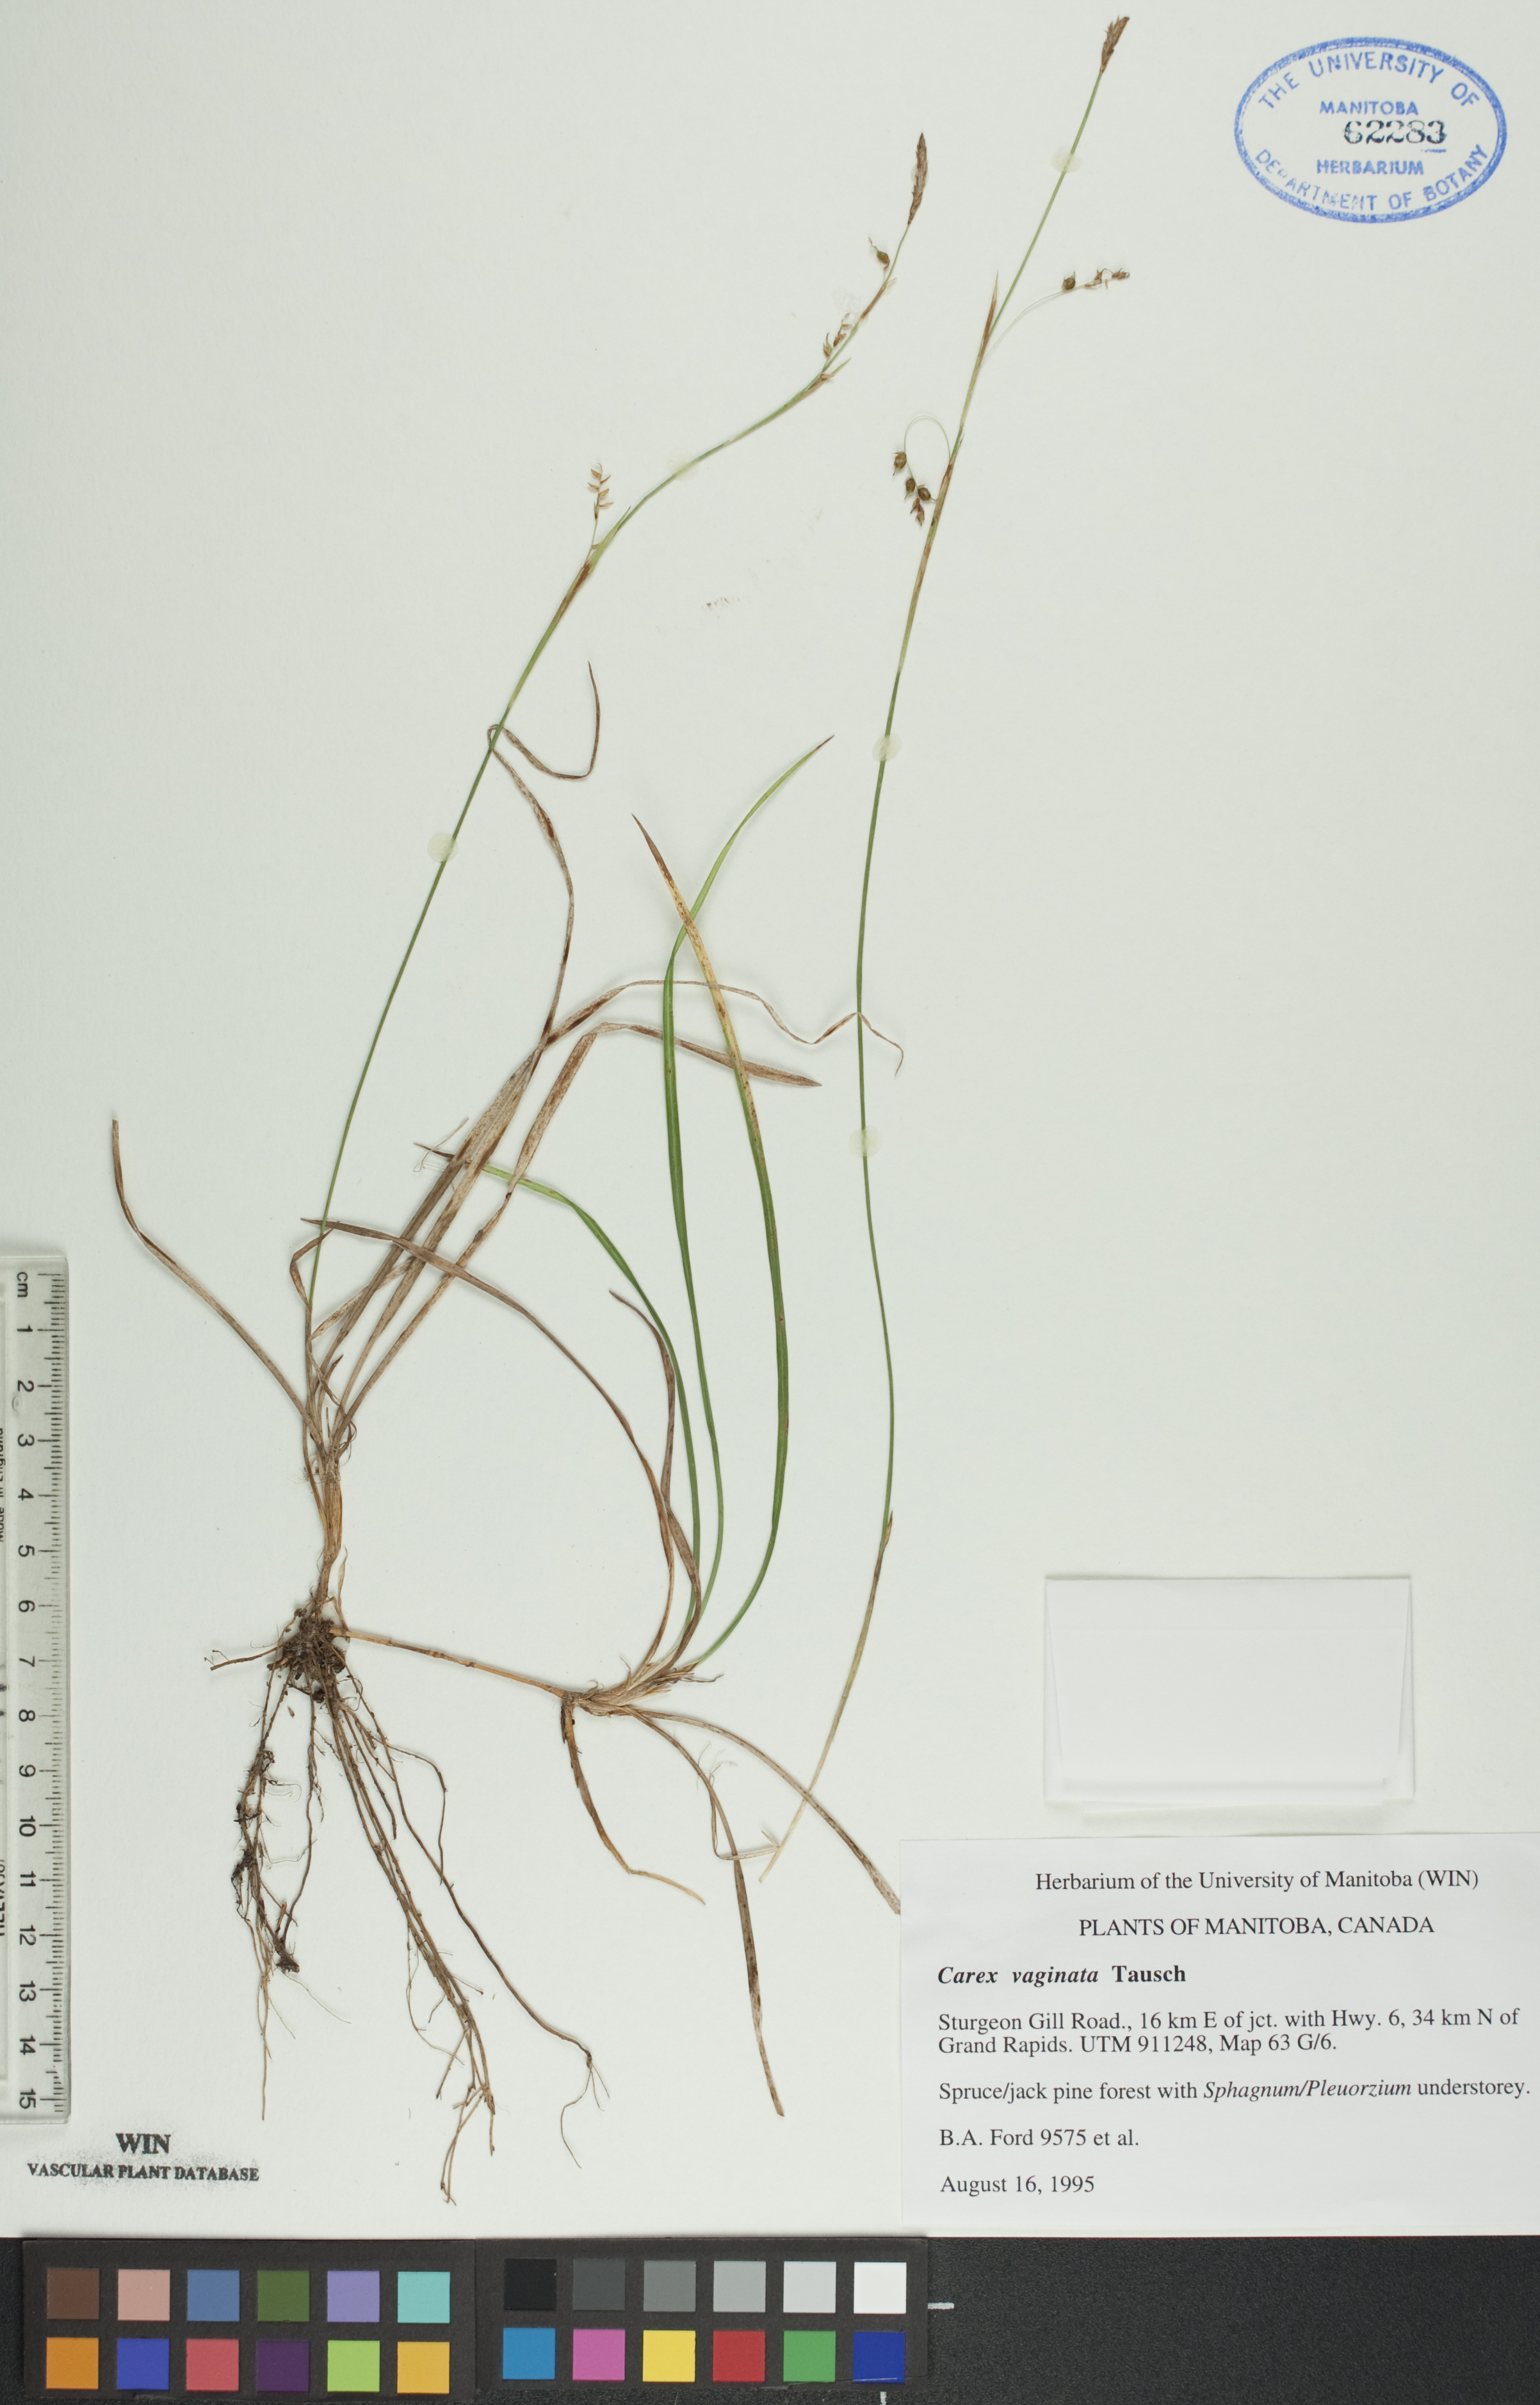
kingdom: Plantae
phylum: Tracheophyta
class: Liliopsida
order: Poales
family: Cyperaceae
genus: Carex
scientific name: Carex vaginata
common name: Sheathed sedge
